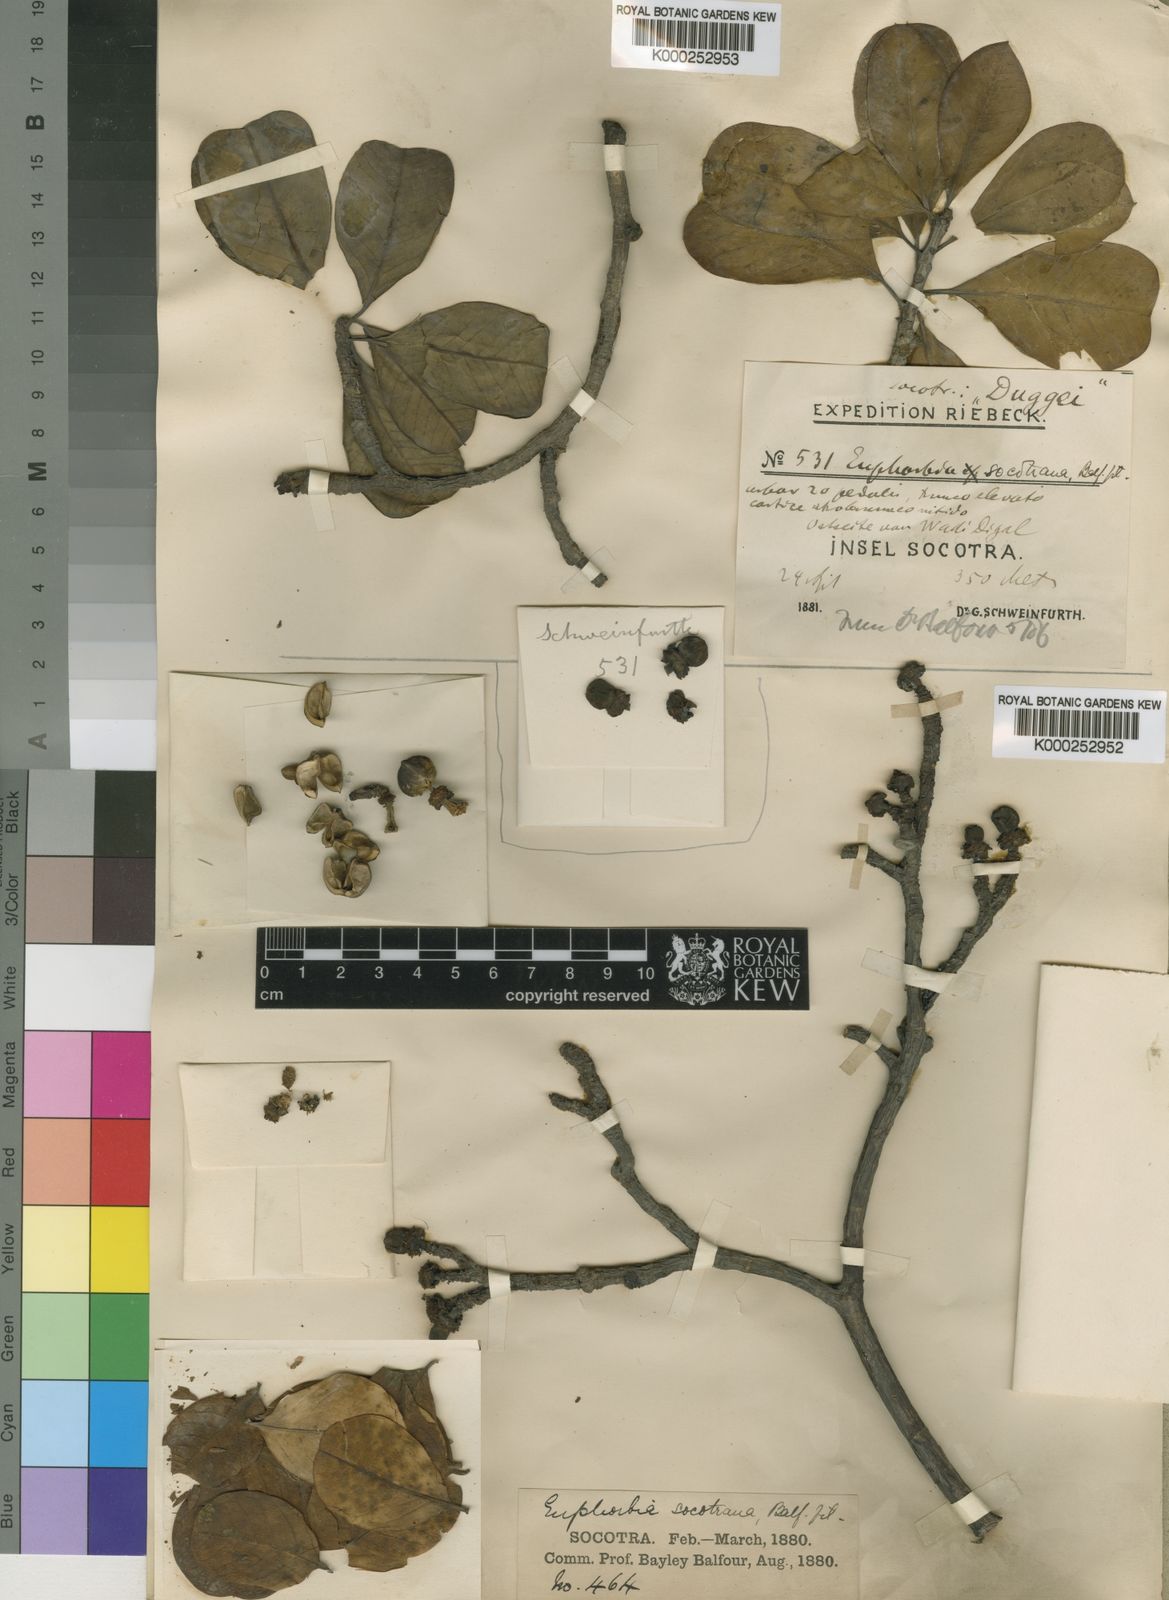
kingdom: Plantae
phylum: Tracheophyta
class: Magnoliopsida
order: Malpighiales
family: Euphorbiaceae
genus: Euphorbia
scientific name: Euphorbia socotrana
